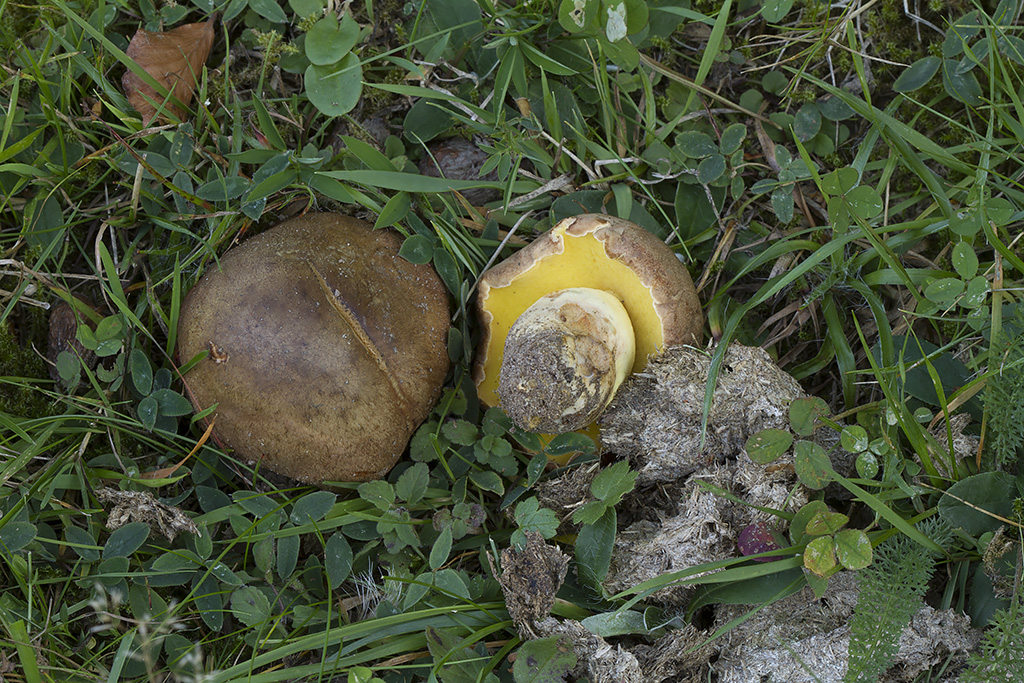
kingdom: Fungi
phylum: Basidiomycota
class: Agaricomycetes
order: Boletales
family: Boletaceae
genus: Butyriboletus
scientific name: Butyriboletus appendiculatus
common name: tenstokket rørhat
